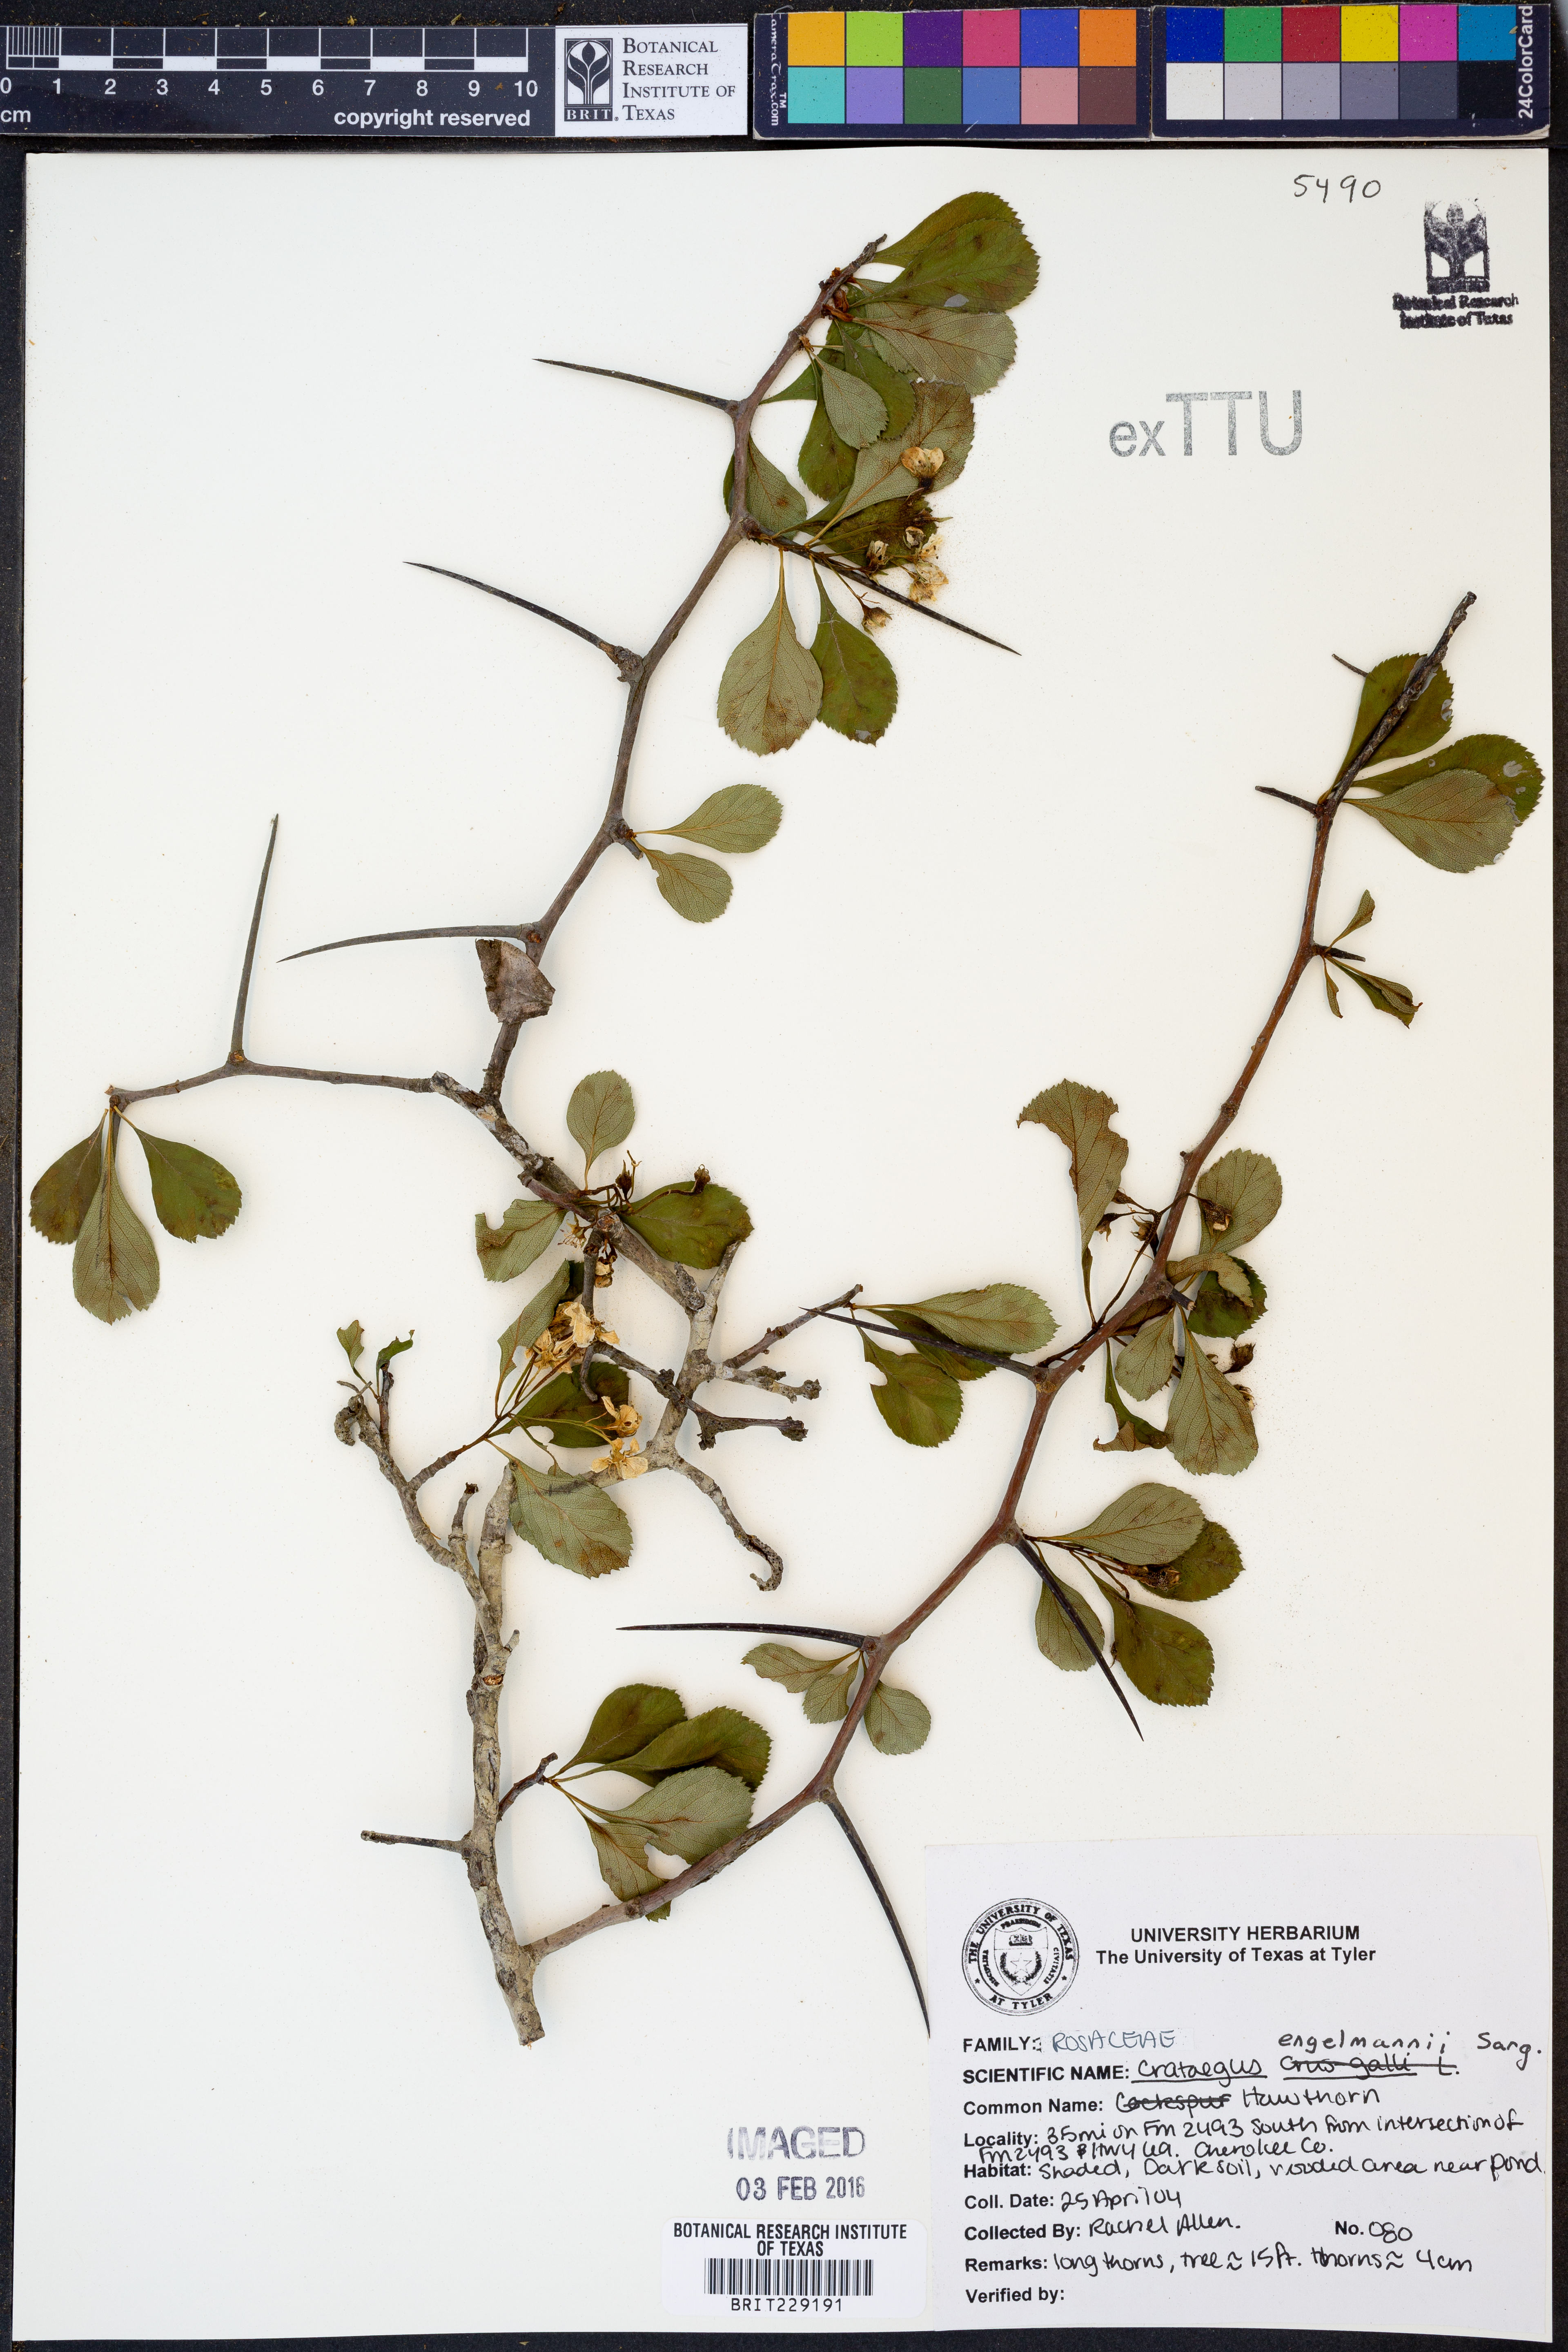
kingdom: Plantae
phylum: Tracheophyta
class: Magnoliopsida
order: Rosales
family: Rosaceae
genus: Crataegus
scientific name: Crataegus berberifolia
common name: Barberry hawthorn
